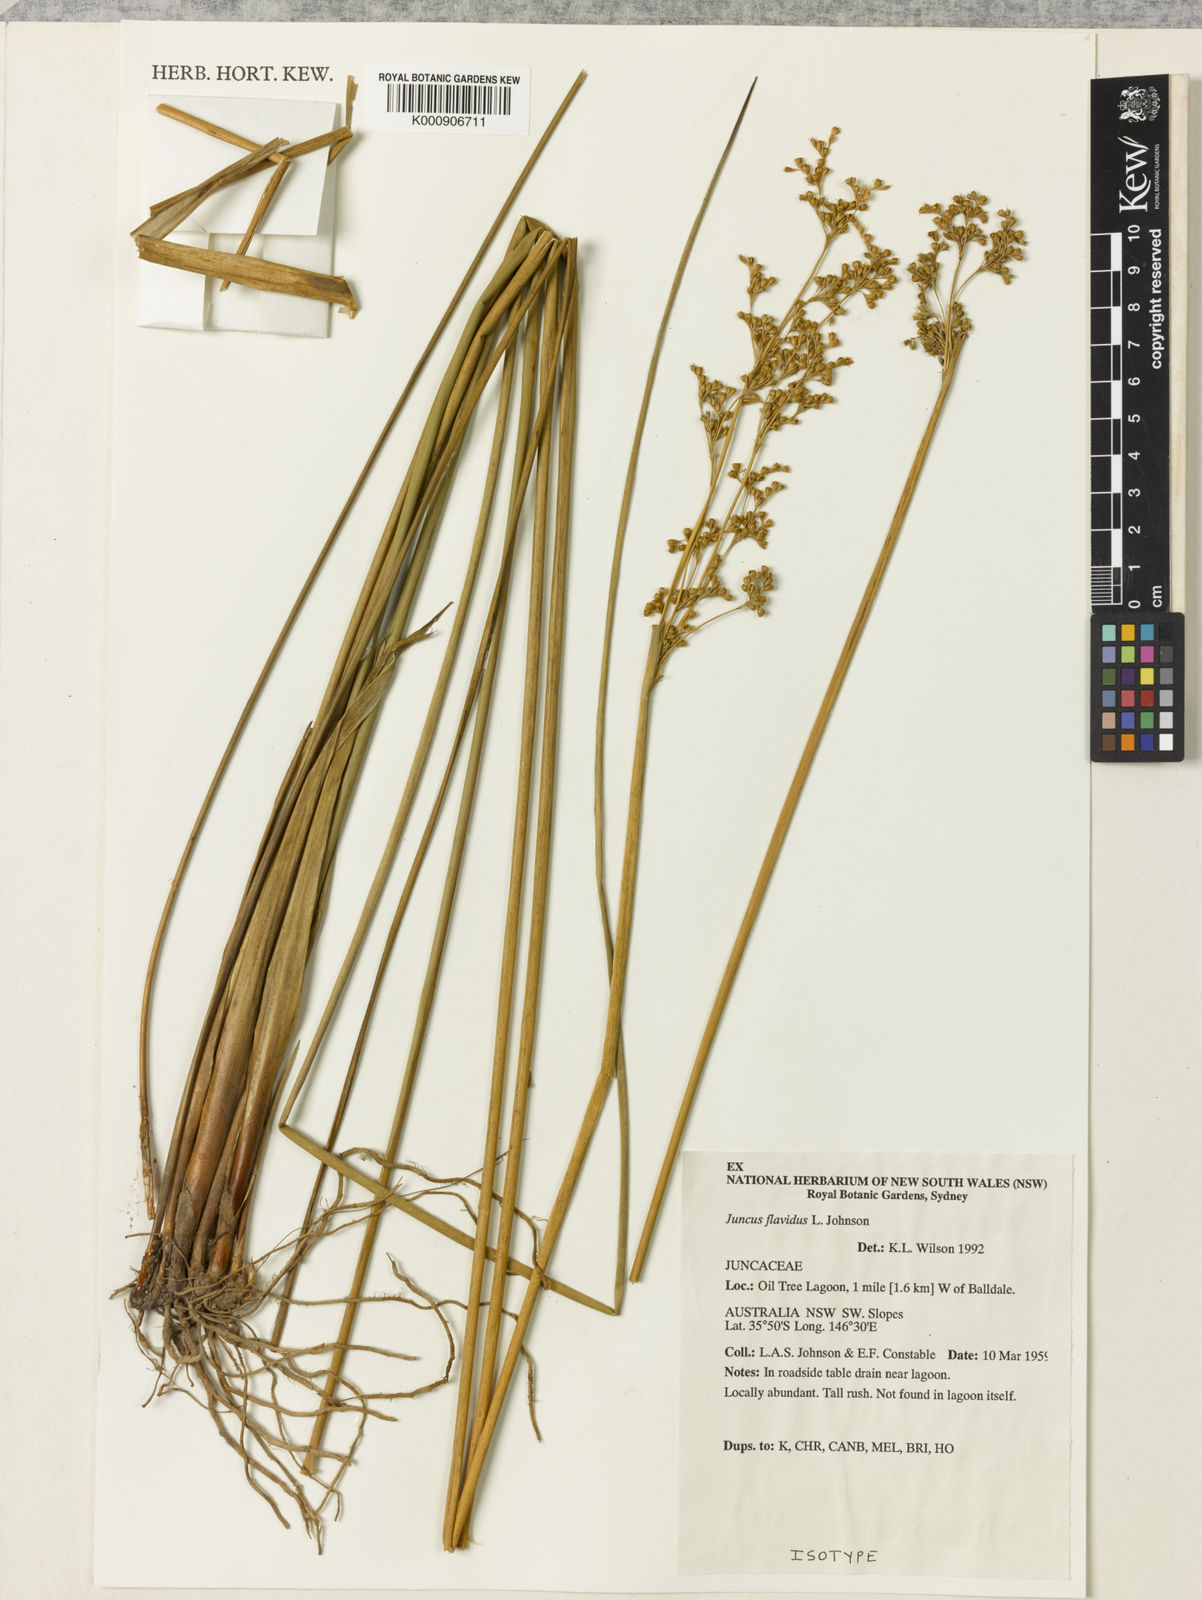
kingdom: Plantae
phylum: Tracheophyta
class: Liliopsida
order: Poales
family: Juncaceae
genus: Juncus
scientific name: Juncus flavidus
